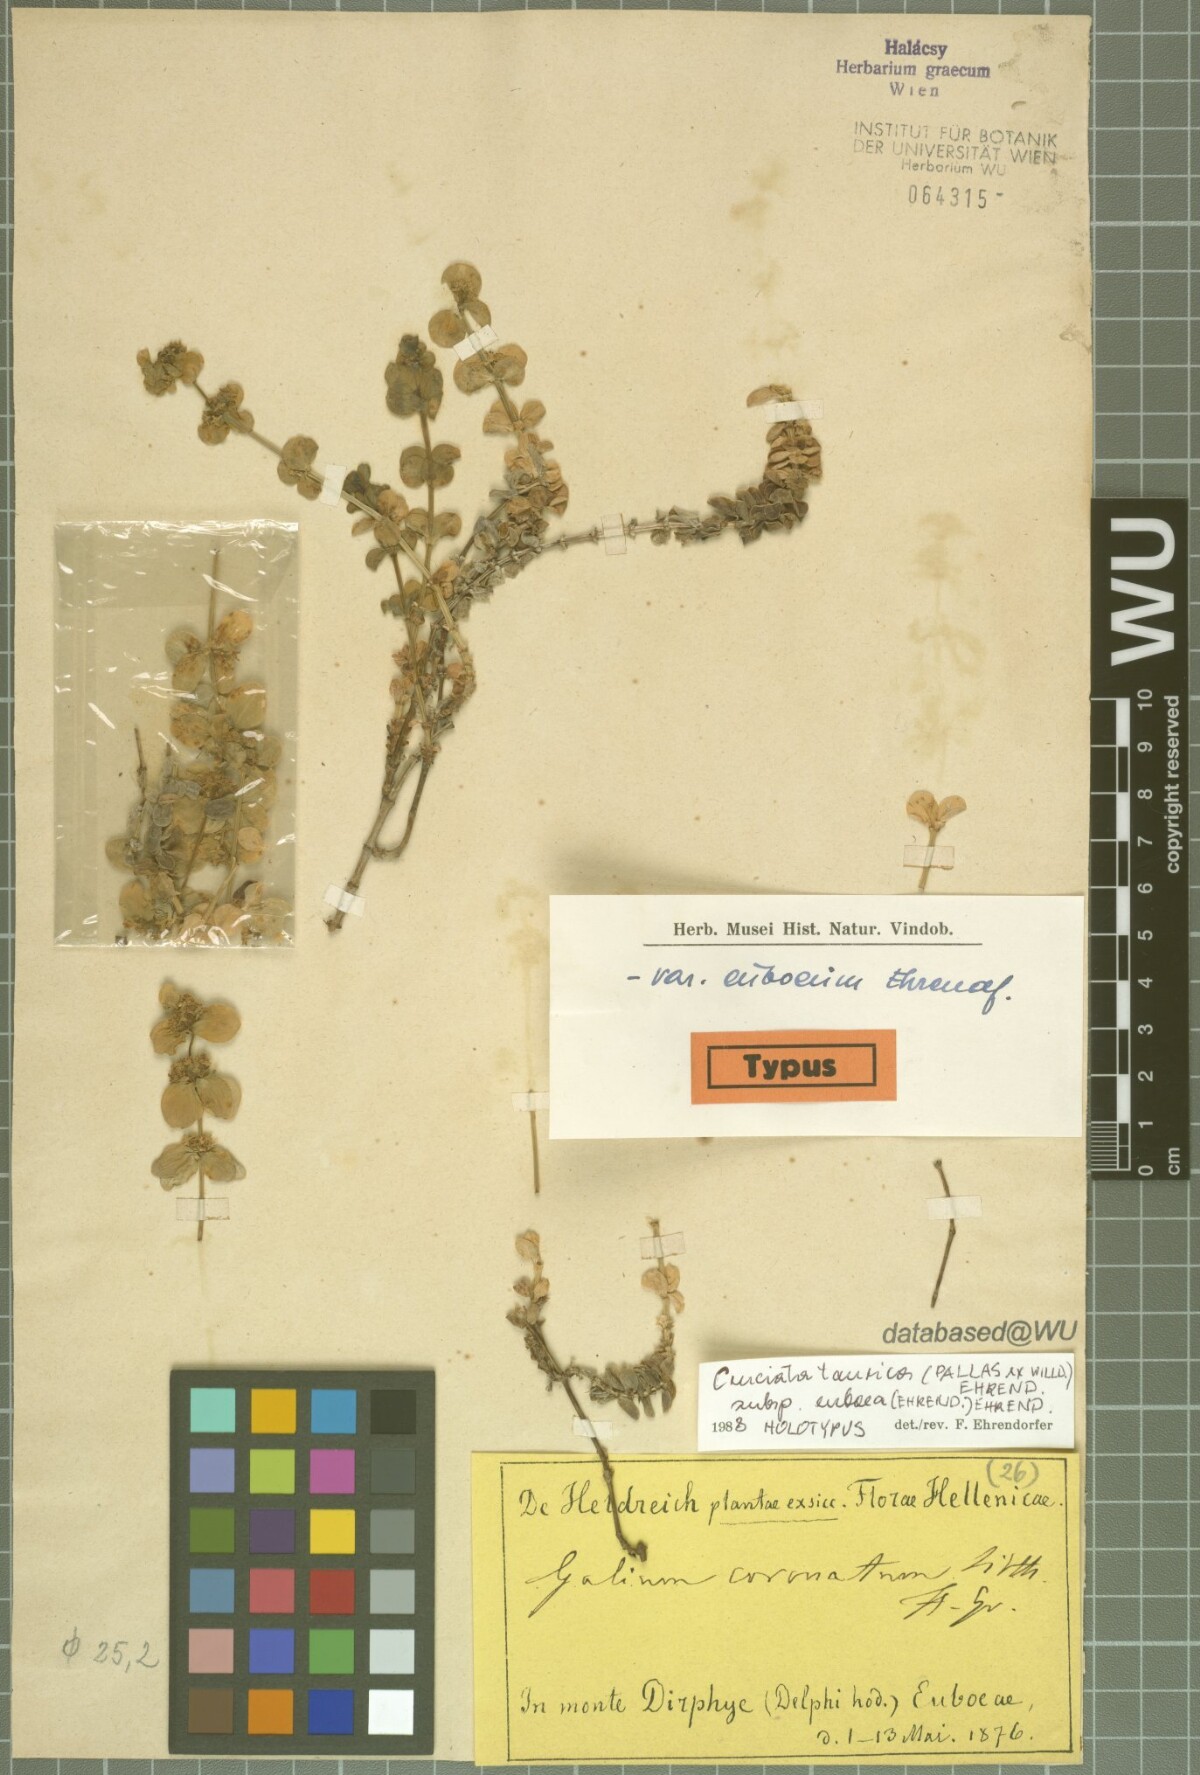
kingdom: Plantae
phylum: Tracheophyta
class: Magnoliopsida
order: Gentianales
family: Rubiaceae
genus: Cruciata
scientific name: Cruciata taurica
